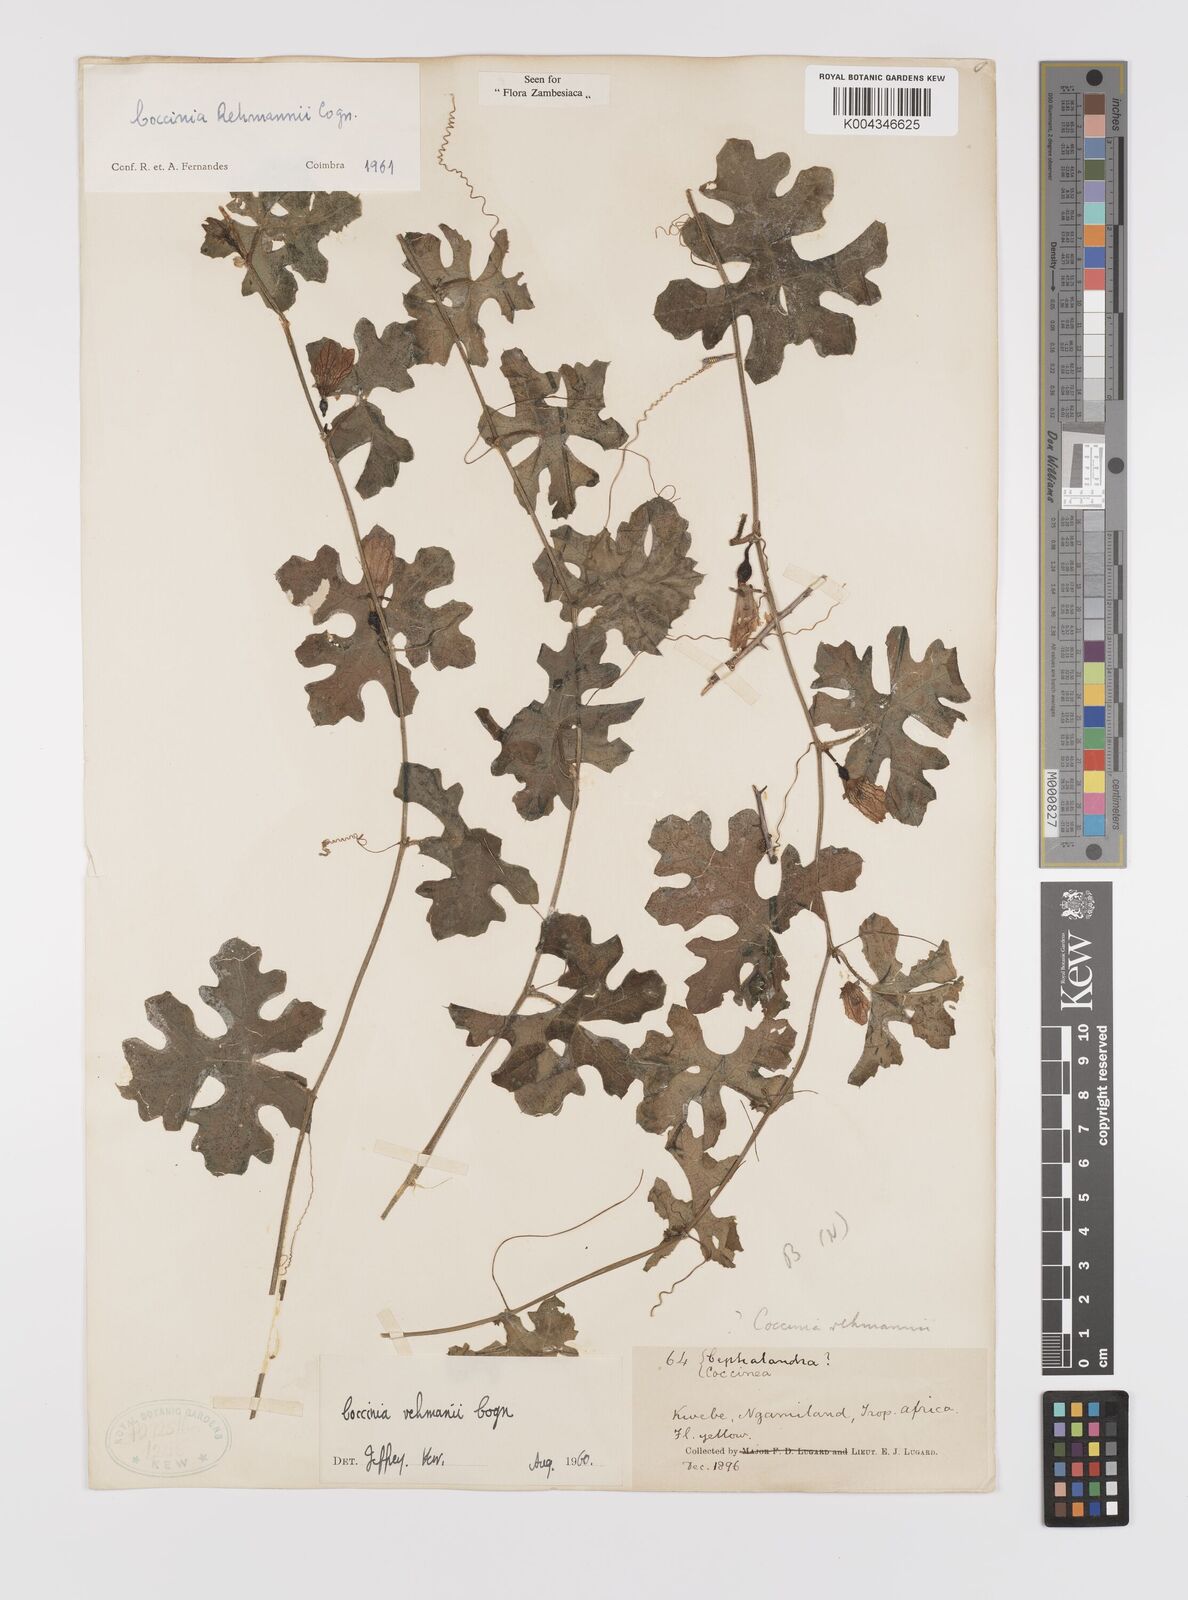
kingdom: Plantae
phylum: Tracheophyta
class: Magnoliopsida
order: Cucurbitales
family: Cucurbitaceae
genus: Coccinia
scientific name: Coccinia rehmannii
